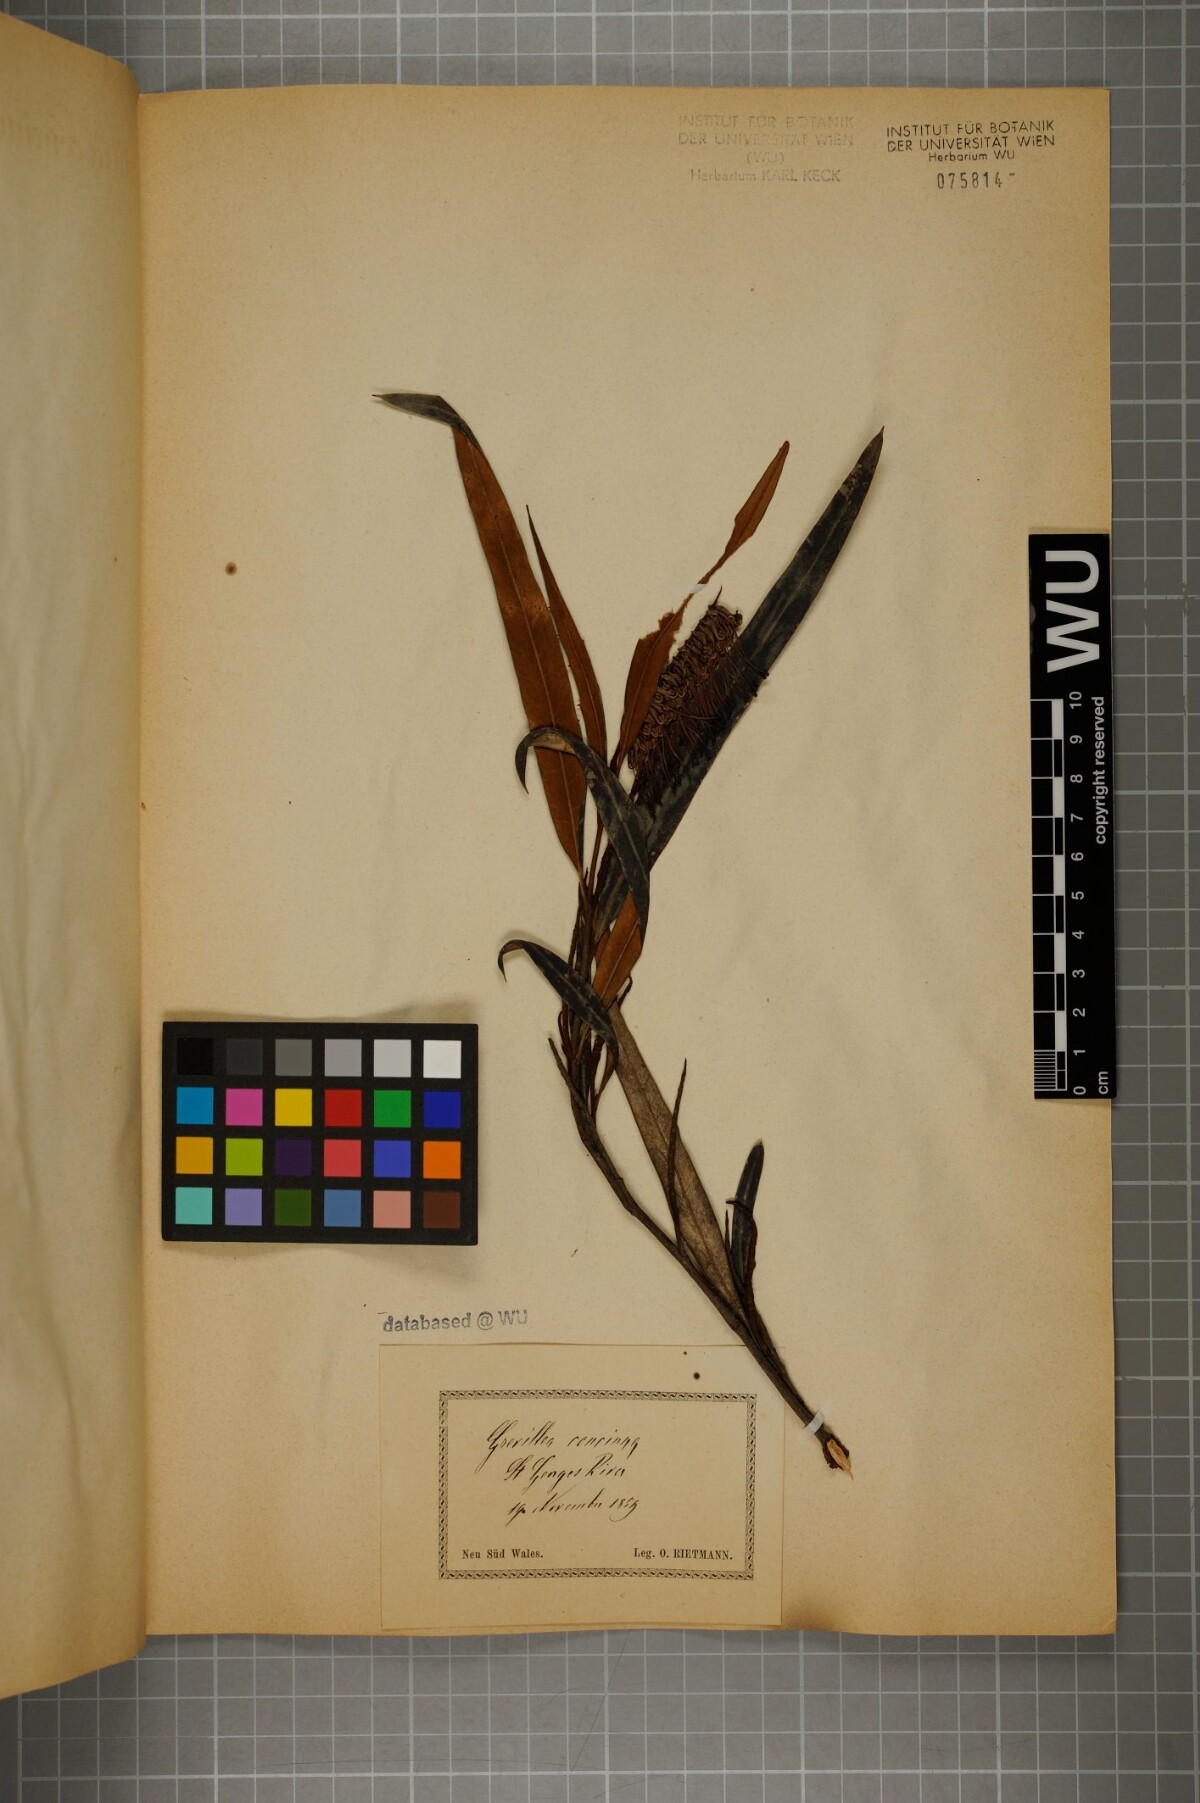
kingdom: Plantae
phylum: Tracheophyta
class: Magnoliopsida
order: Proteales
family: Proteaceae
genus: Grevillea
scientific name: Grevillea concinna
